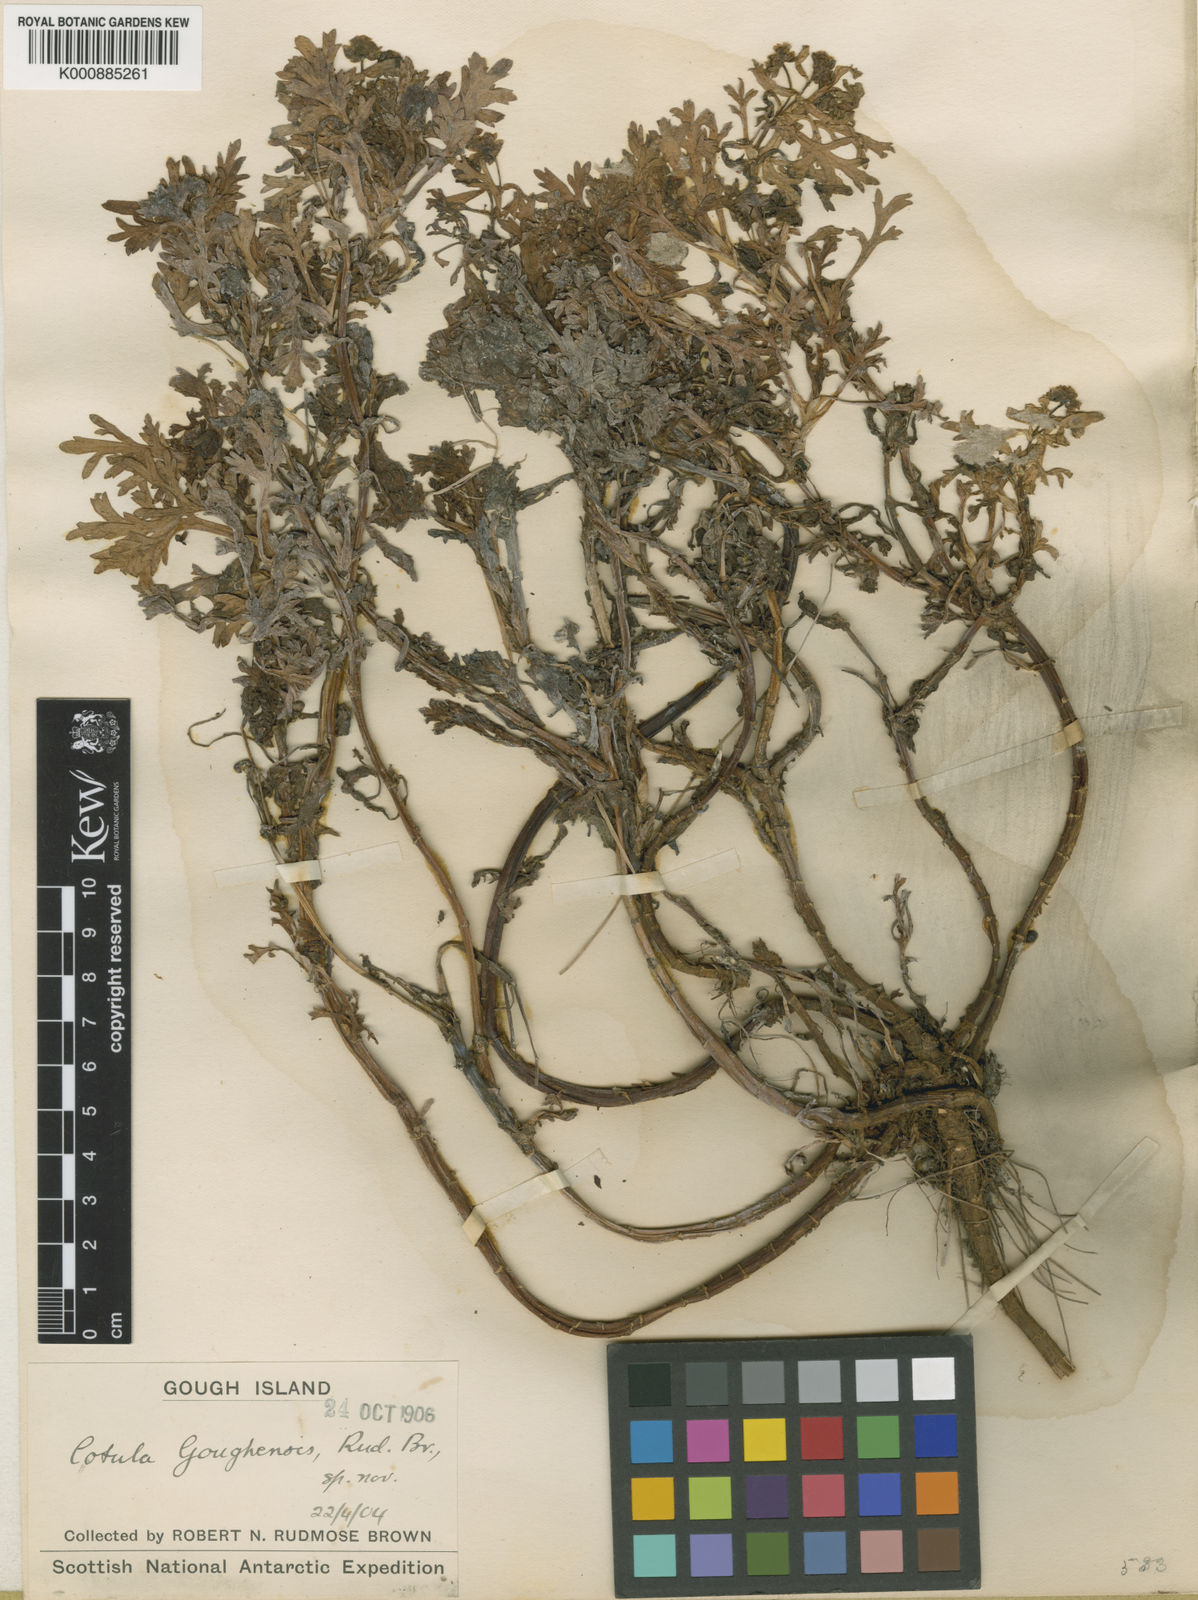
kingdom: Plantae
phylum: Tracheophyta
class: Magnoliopsida
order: Asterales
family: Asteraceae
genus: Cotula
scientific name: Cotula
